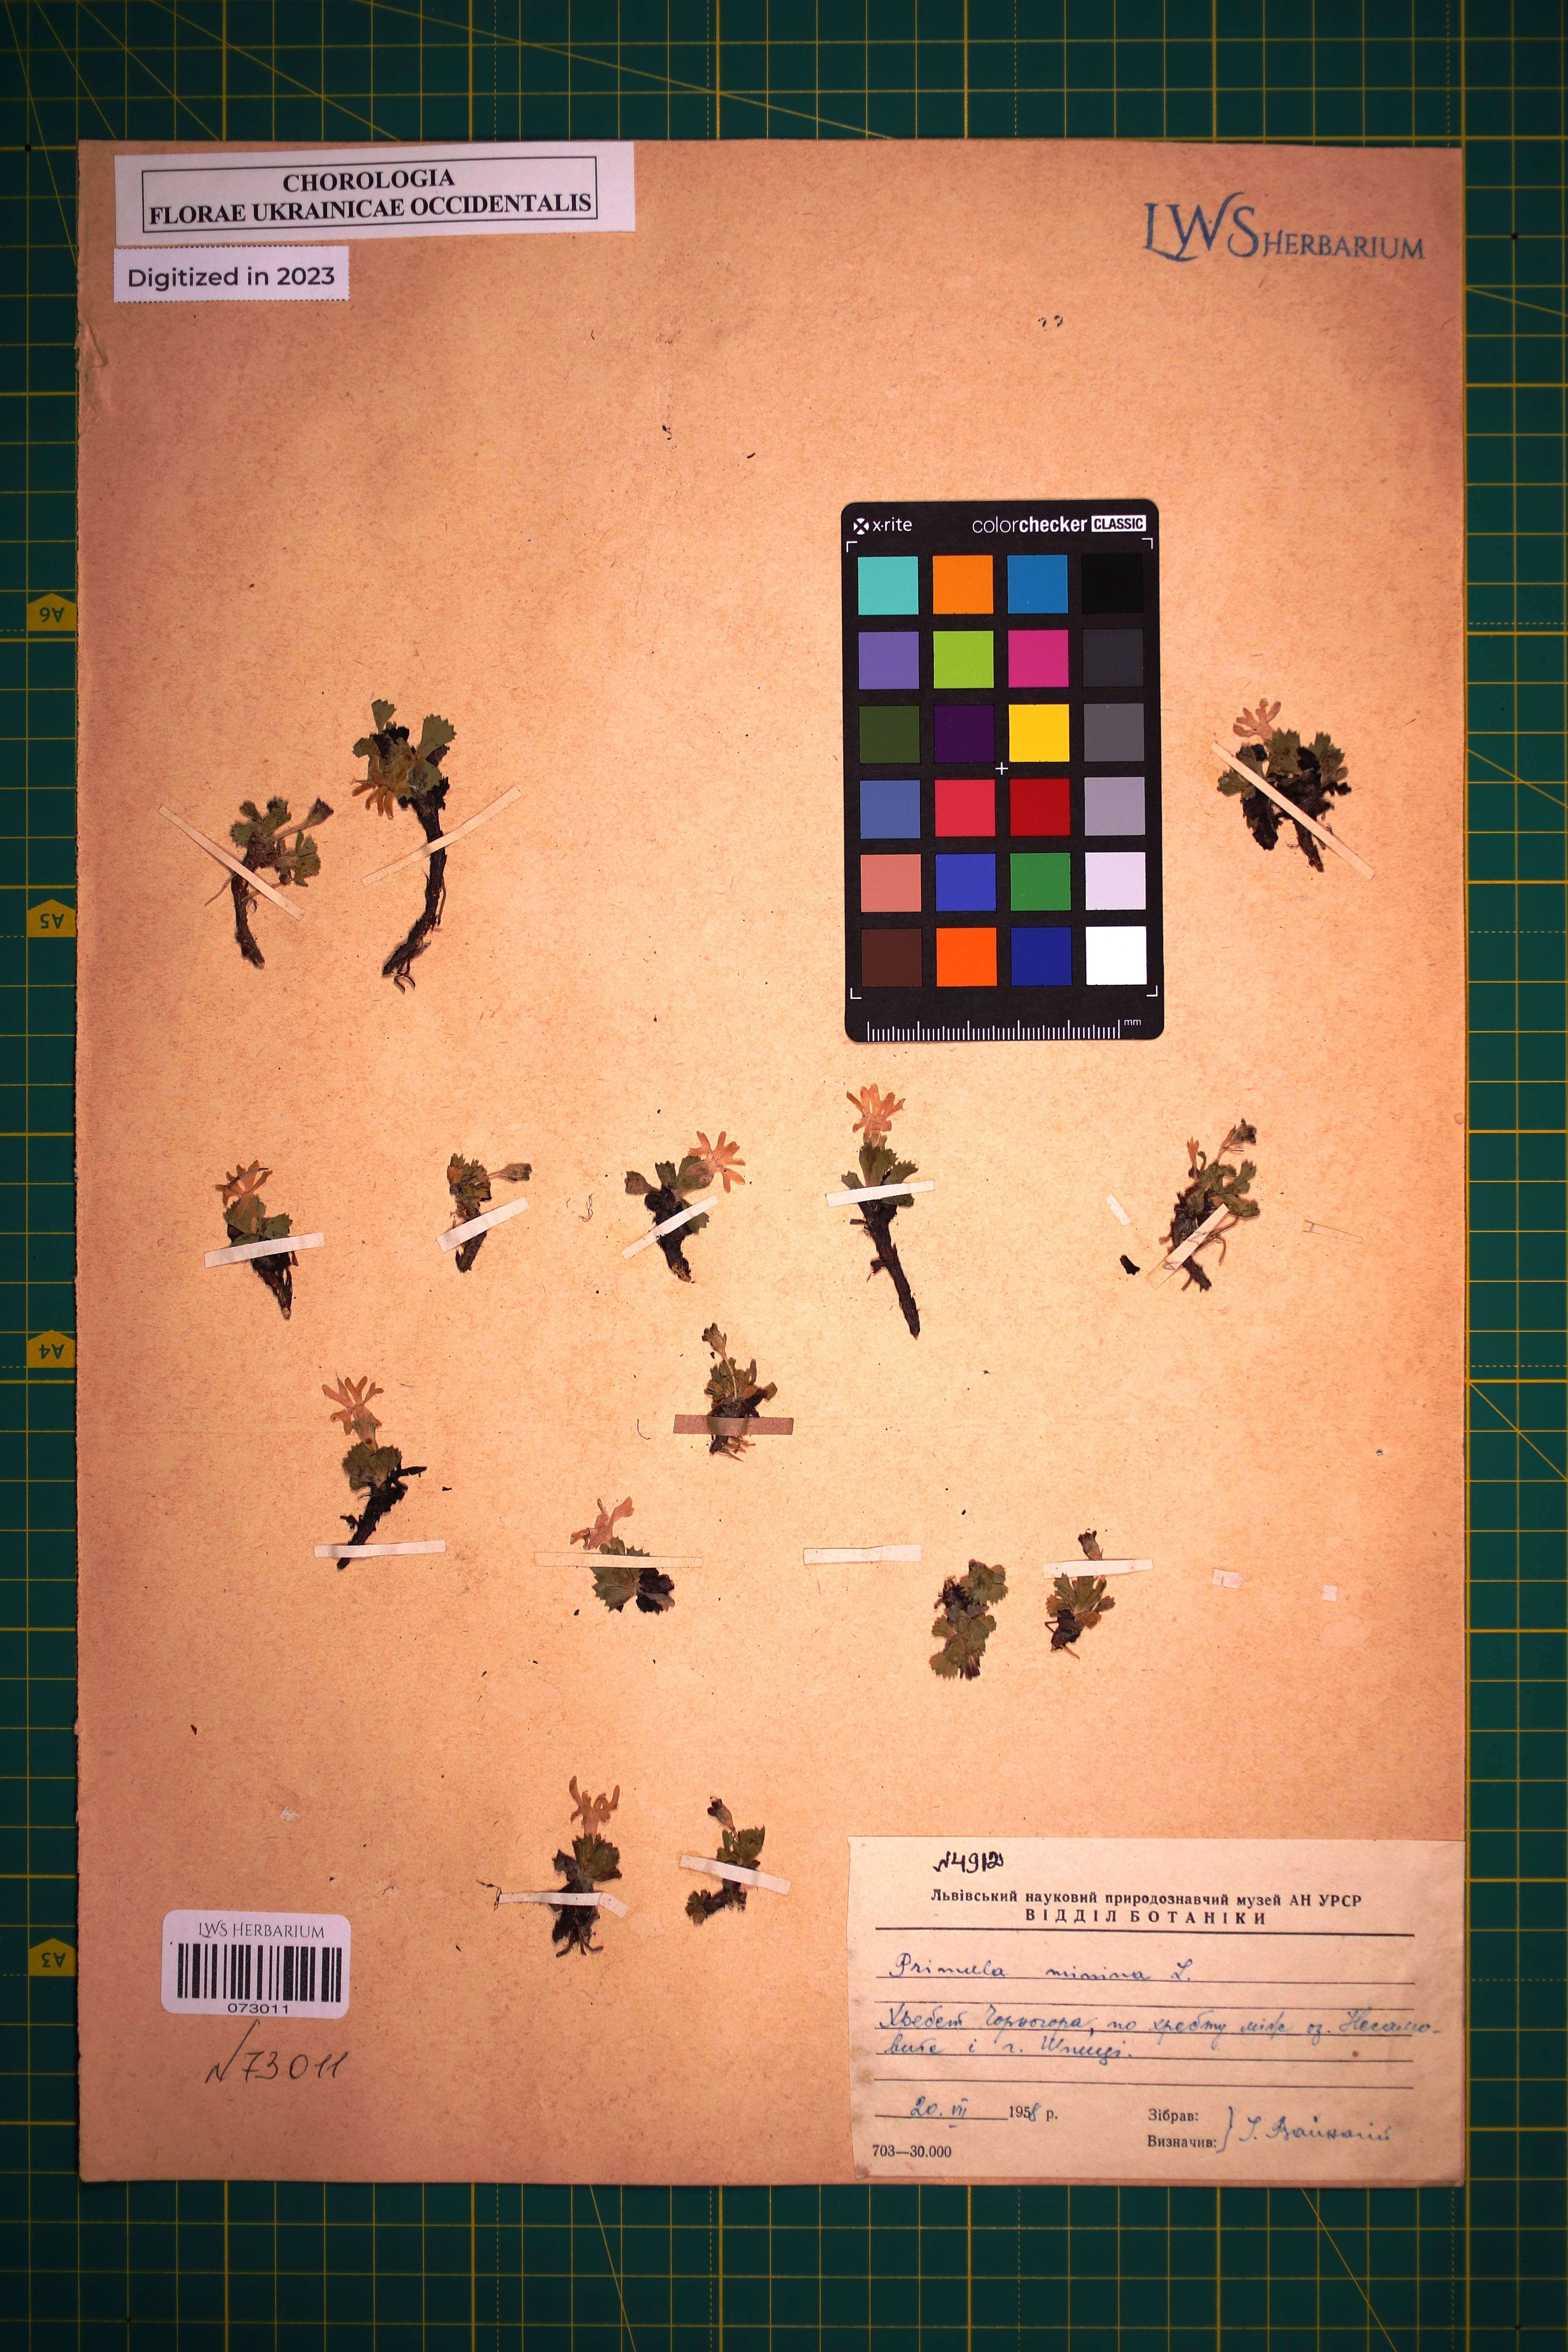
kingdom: Plantae
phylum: Tracheophyta
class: Magnoliopsida
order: Ericales
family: Primulaceae
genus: Primula
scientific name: Primula minima
